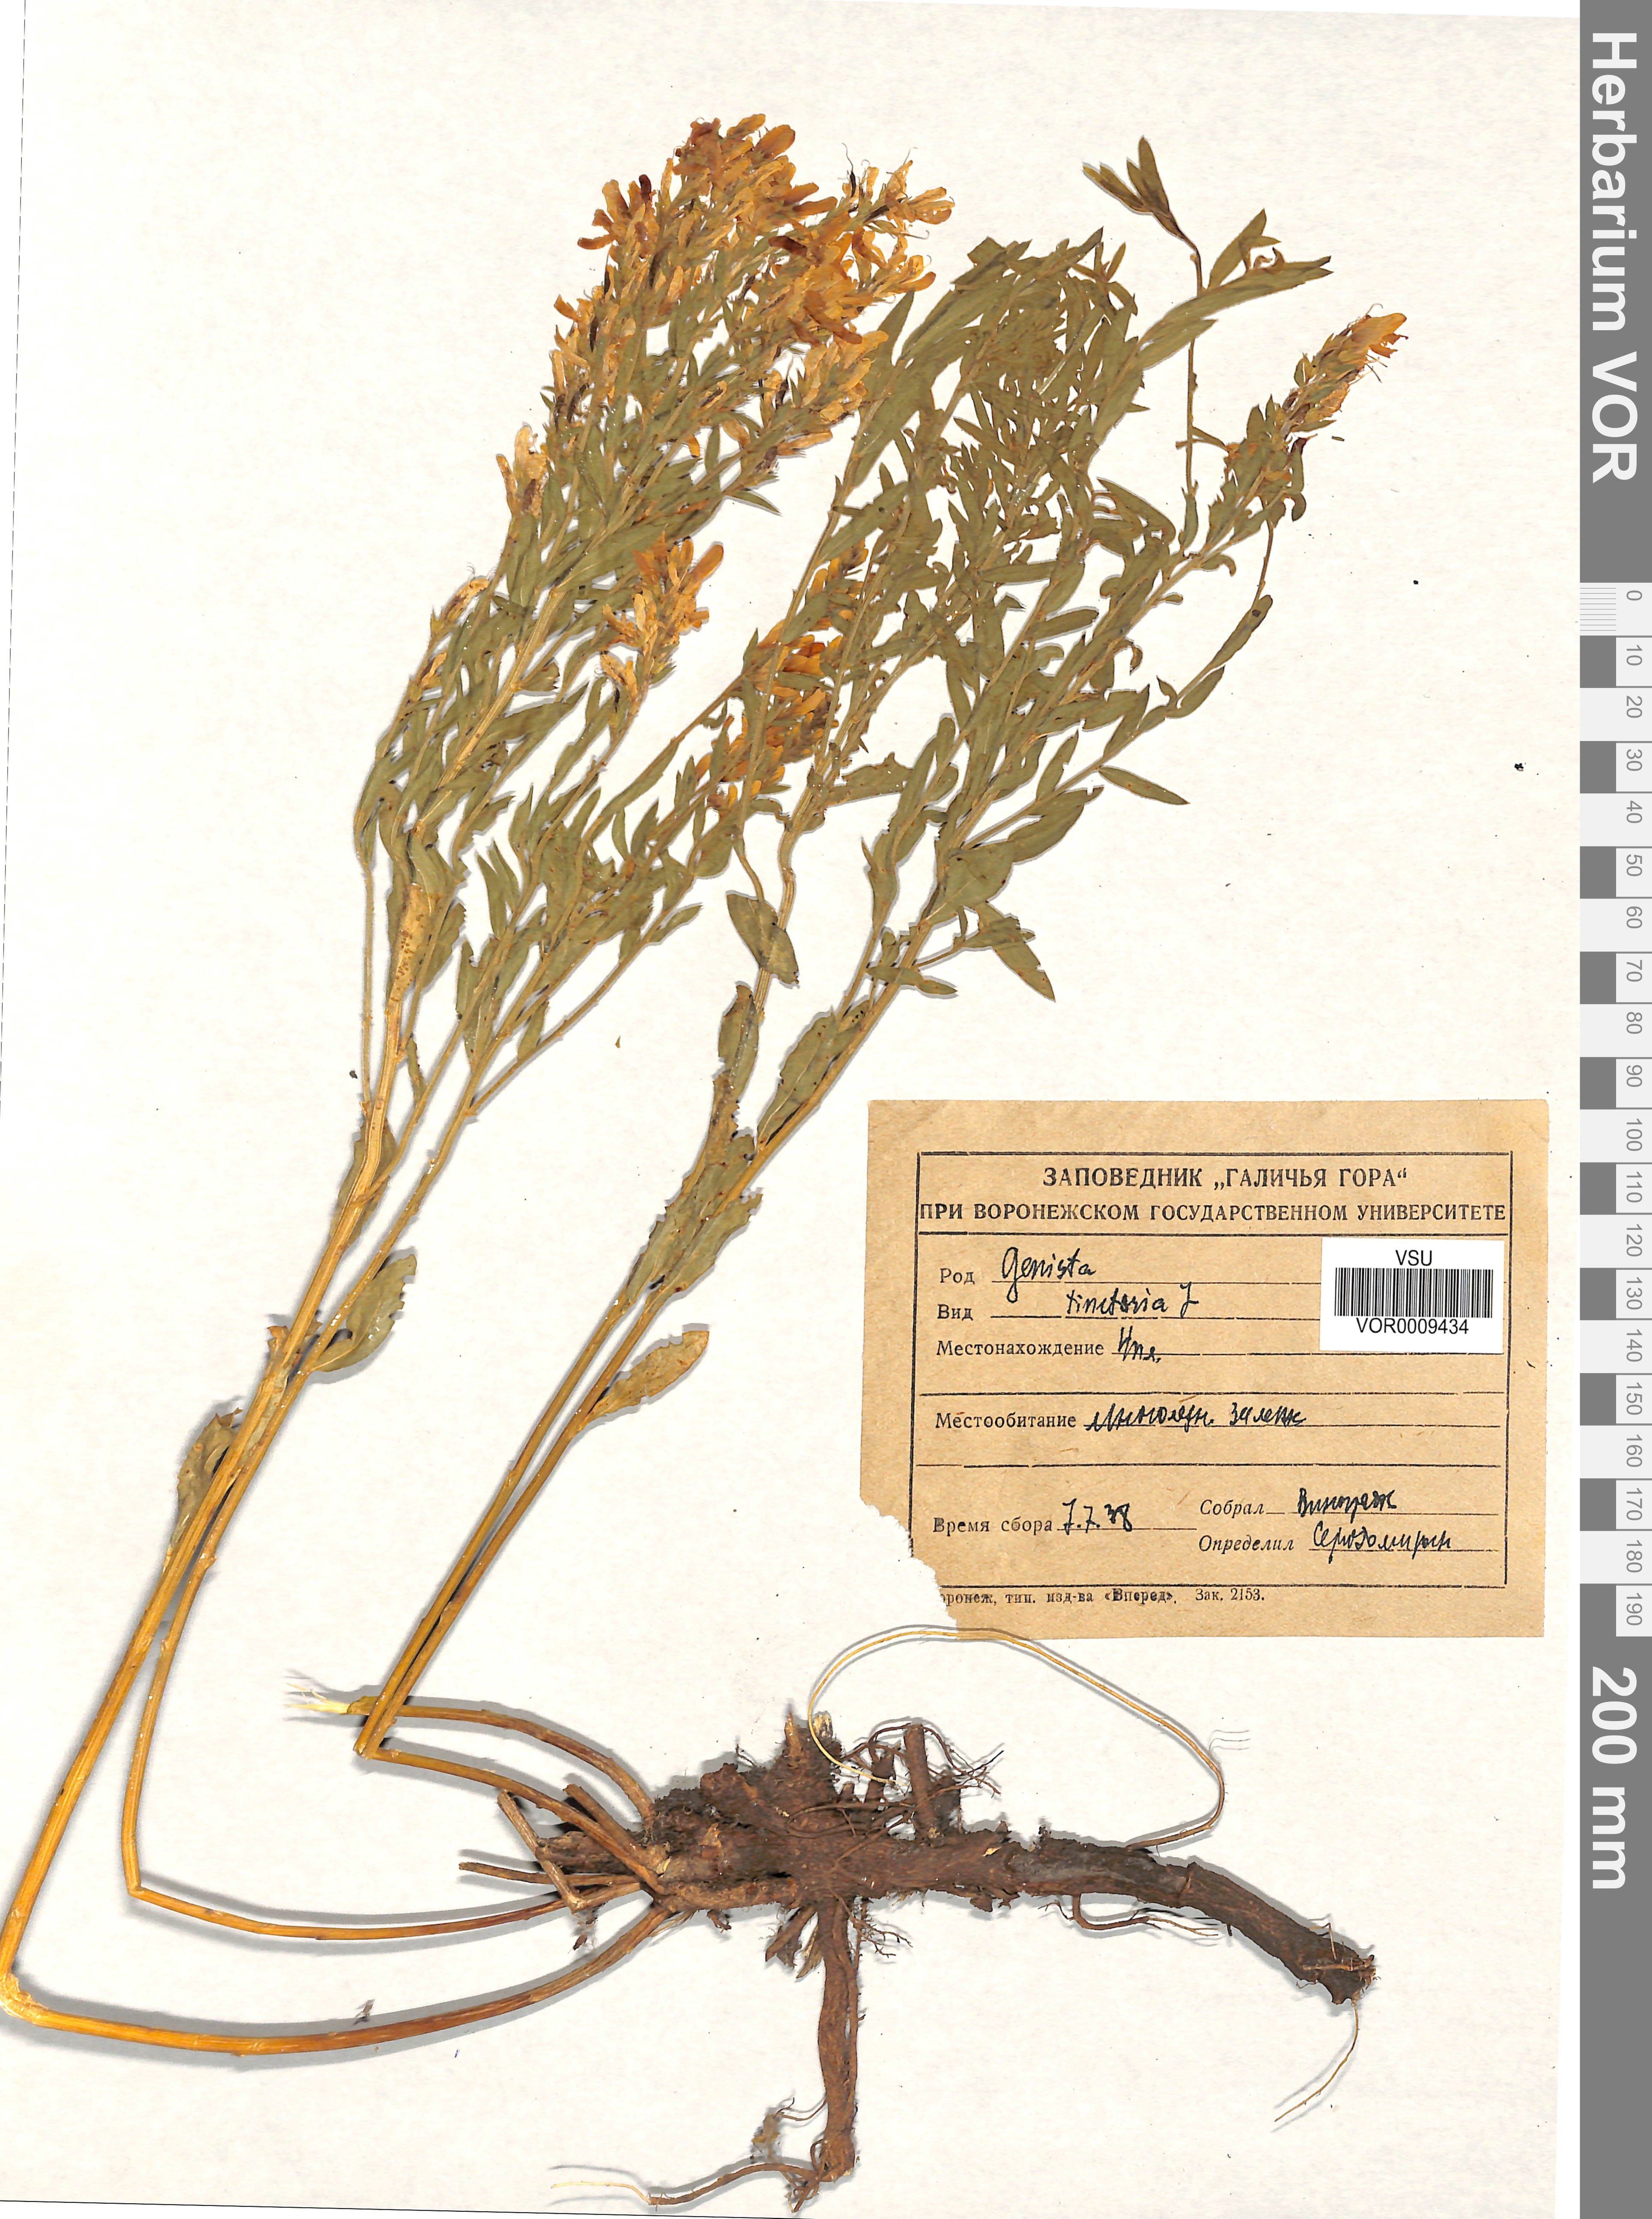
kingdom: Plantae
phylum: Tracheophyta
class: Magnoliopsida
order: Fabales
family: Fabaceae
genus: Genista
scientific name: Genista tinctoria
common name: Dyer's greenweed
